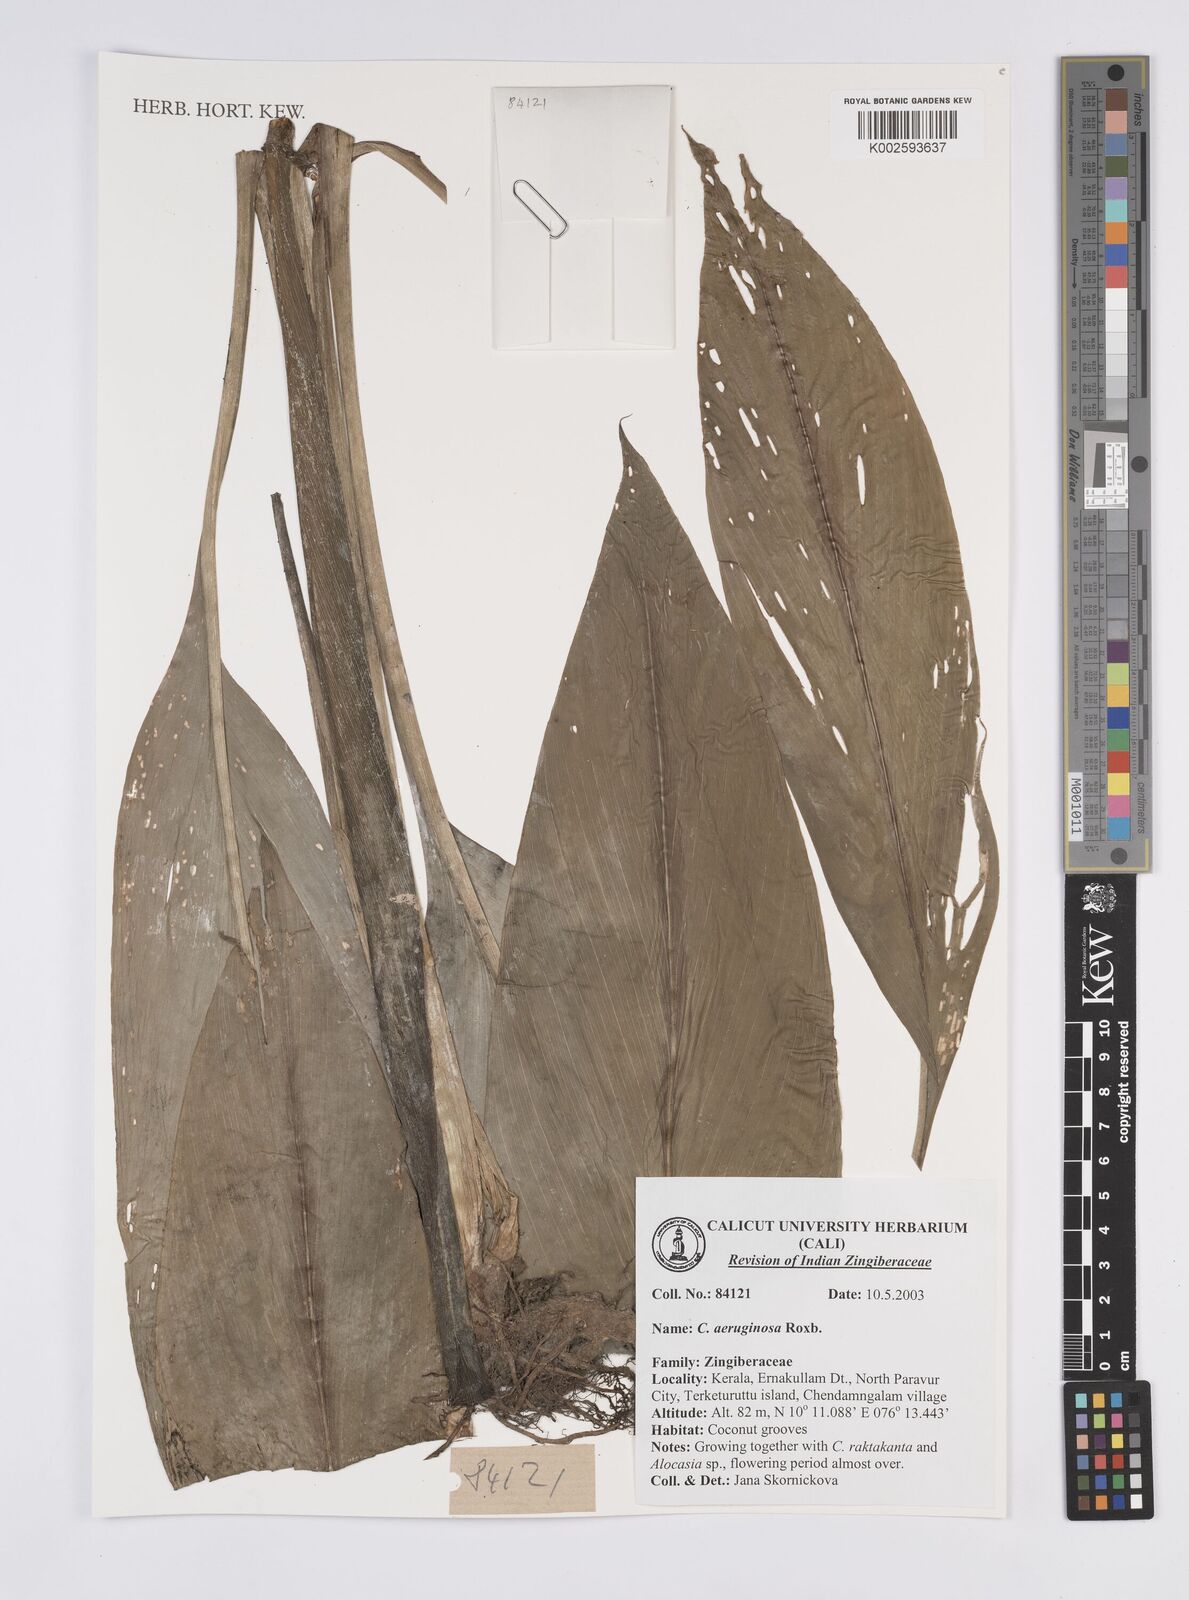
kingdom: Plantae
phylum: Tracheophyta
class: Liliopsida
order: Zingiberales
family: Zingiberaceae
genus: Curcuma
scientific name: Curcuma aeruginosa
